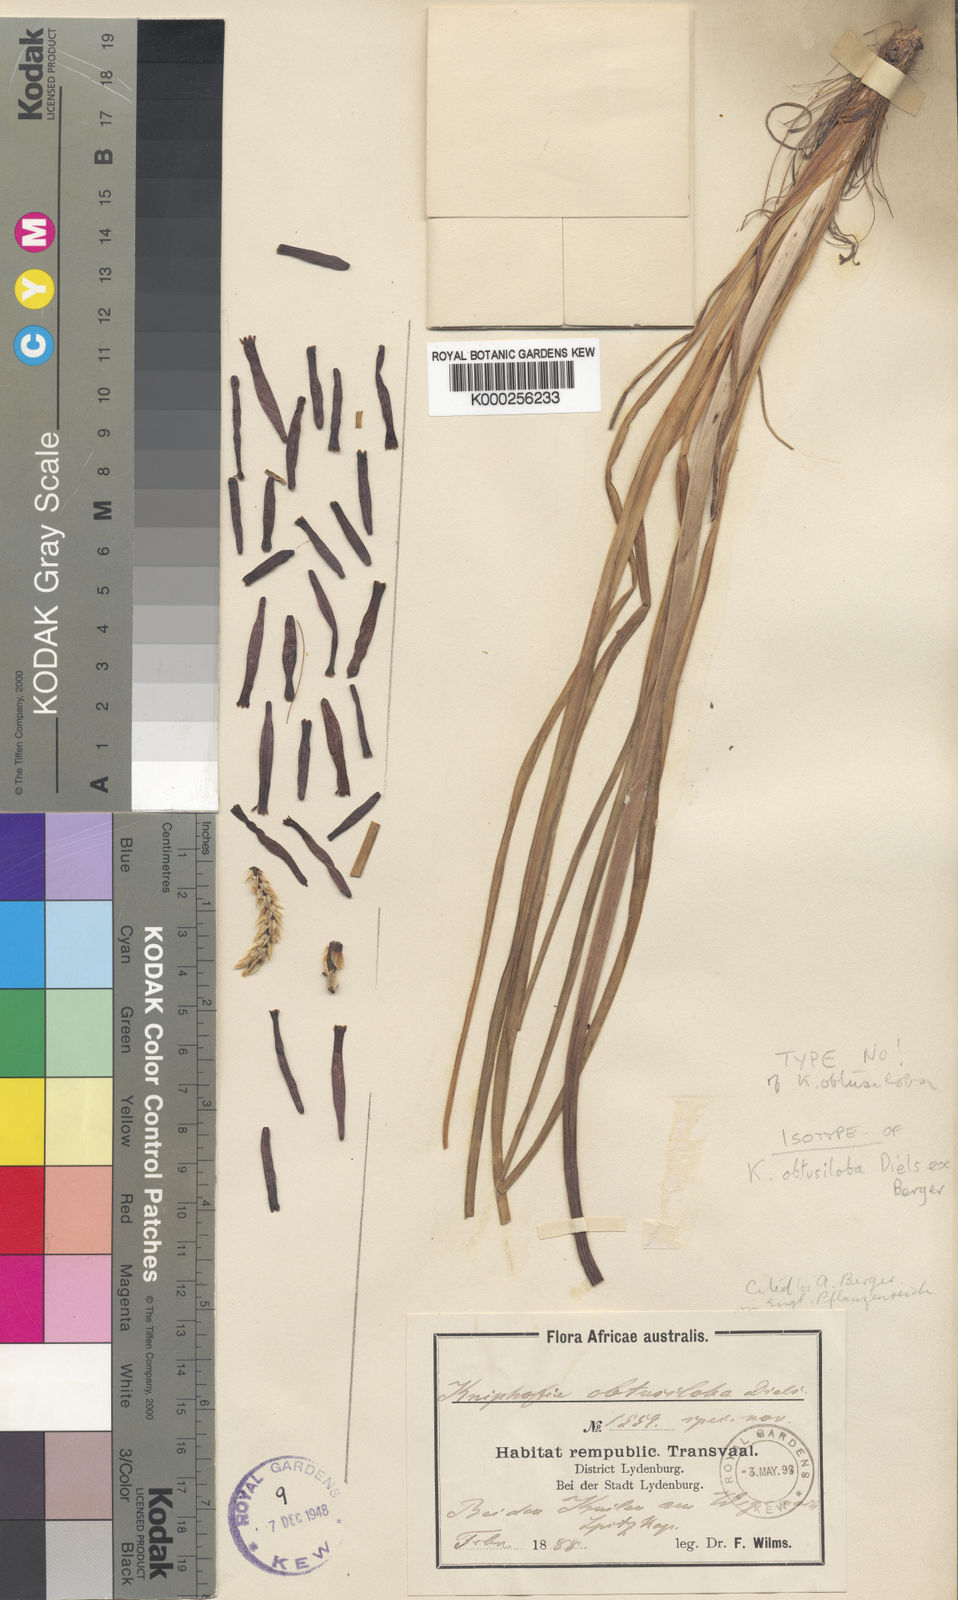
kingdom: Plantae
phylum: Tracheophyta
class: Liliopsida
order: Asparagales
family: Asphodelaceae
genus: Kniphofia
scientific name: Kniphofia triangularis
